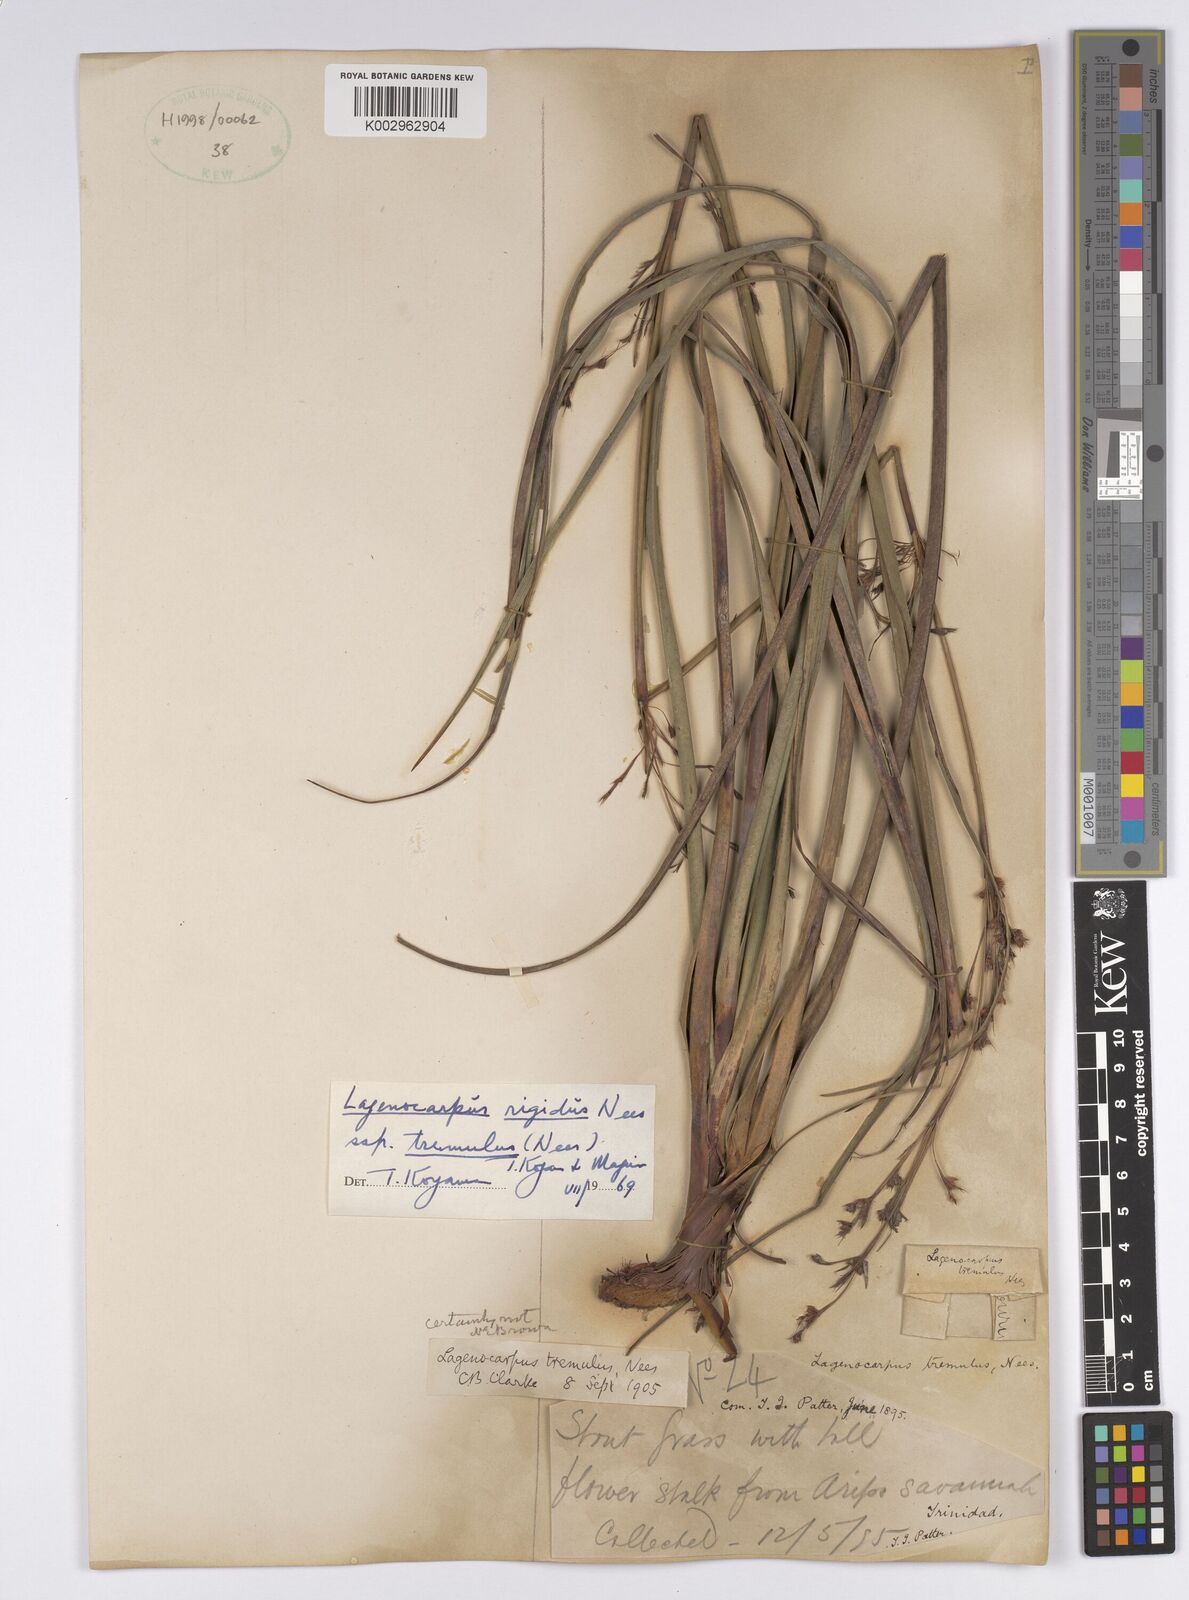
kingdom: Plantae
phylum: Tracheophyta
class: Liliopsida
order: Poales
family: Cyperaceae
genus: Lagenocarpus
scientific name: Lagenocarpus rigidus
